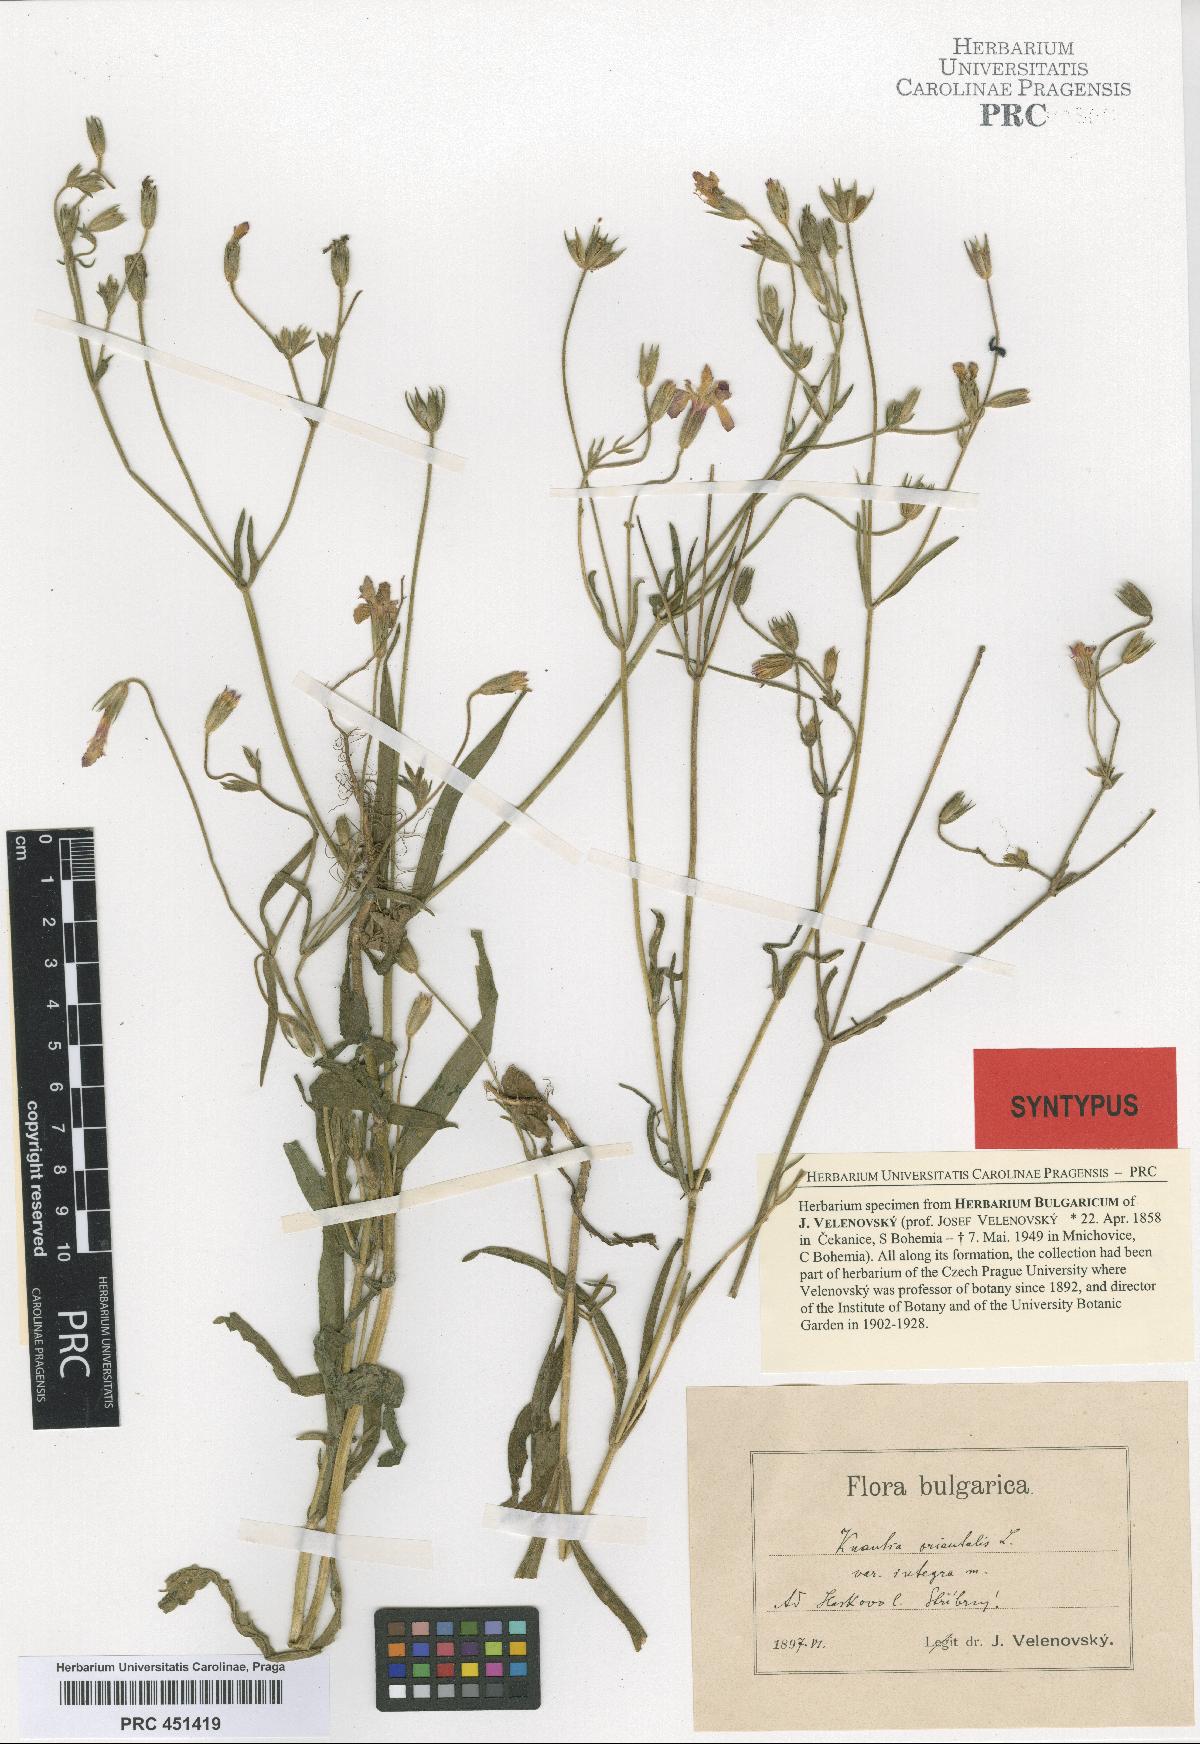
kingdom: Plantae
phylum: Tracheophyta
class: Magnoliopsida
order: Dipsacales
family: Caprifoliaceae
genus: Knautia
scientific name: Knautia orientalis
